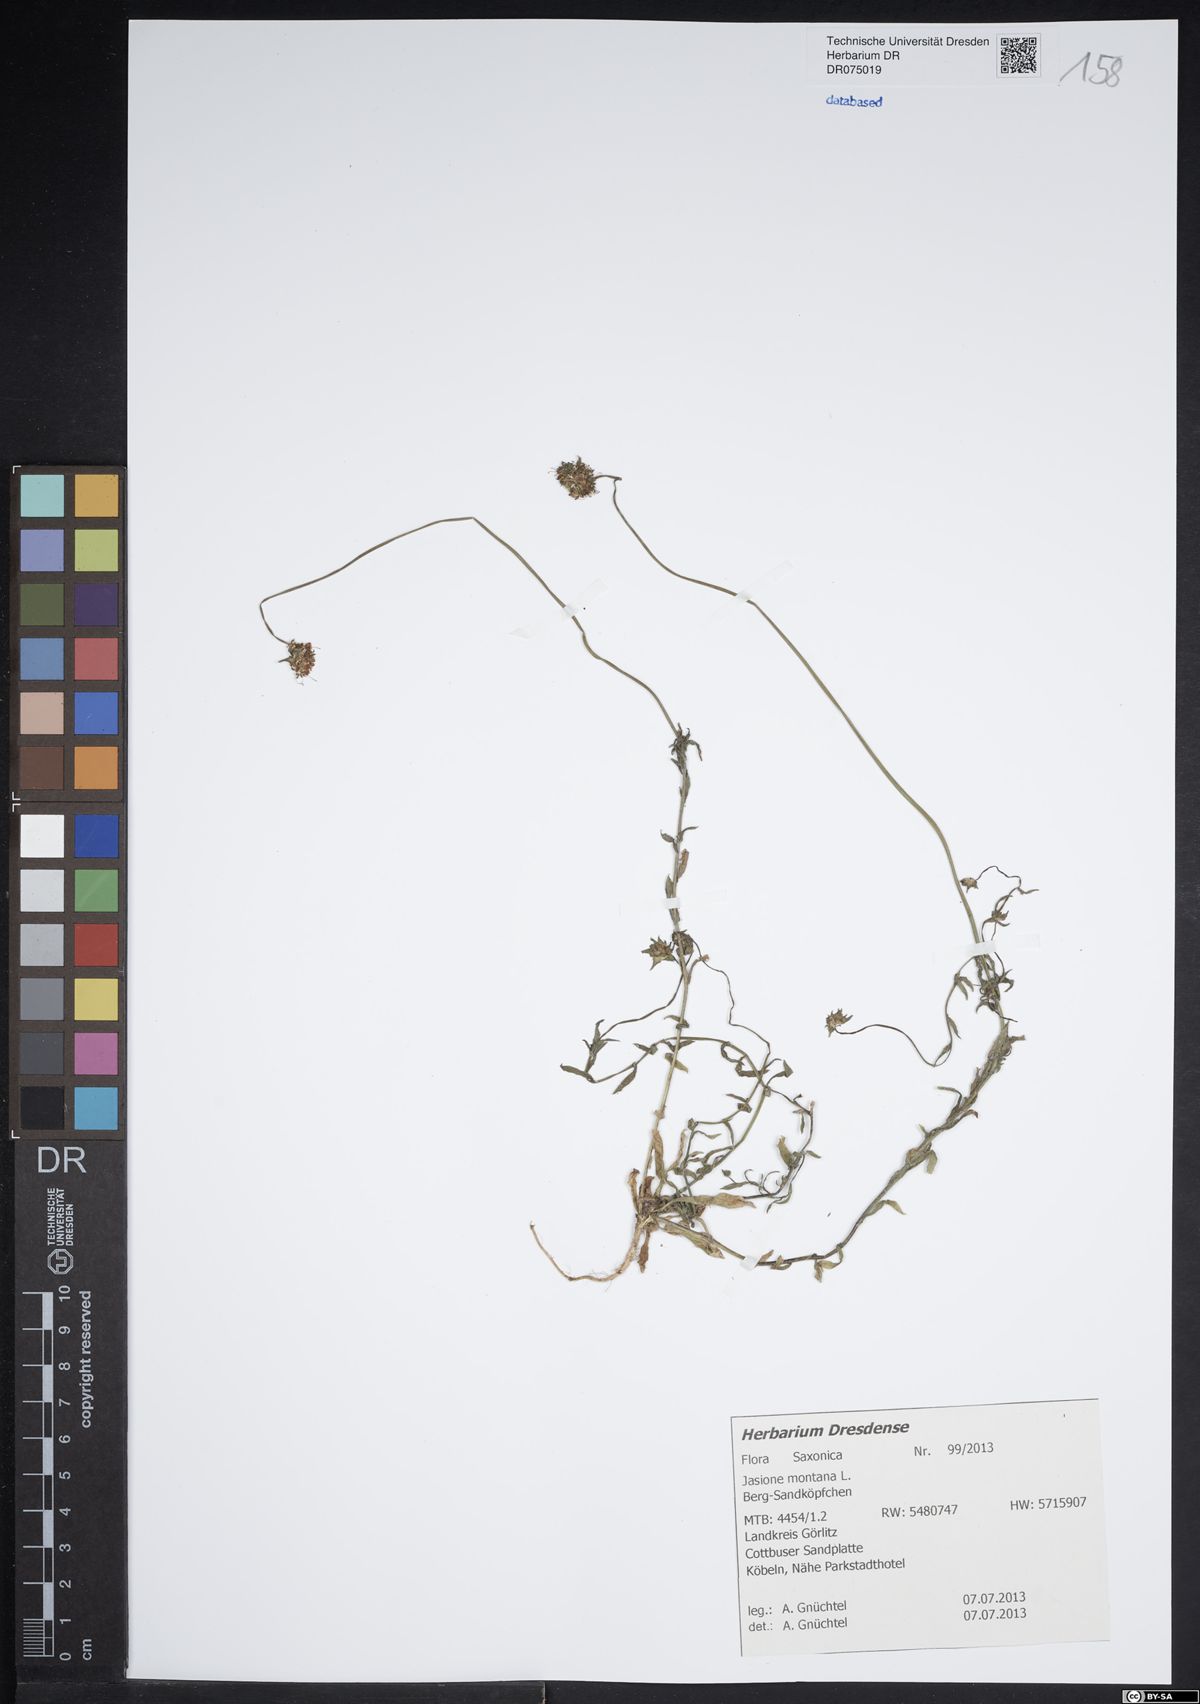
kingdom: Plantae
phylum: Tracheophyta
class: Magnoliopsida
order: Asterales
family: Campanulaceae
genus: Jasione
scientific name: Jasione montana
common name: Sheep's-bit
